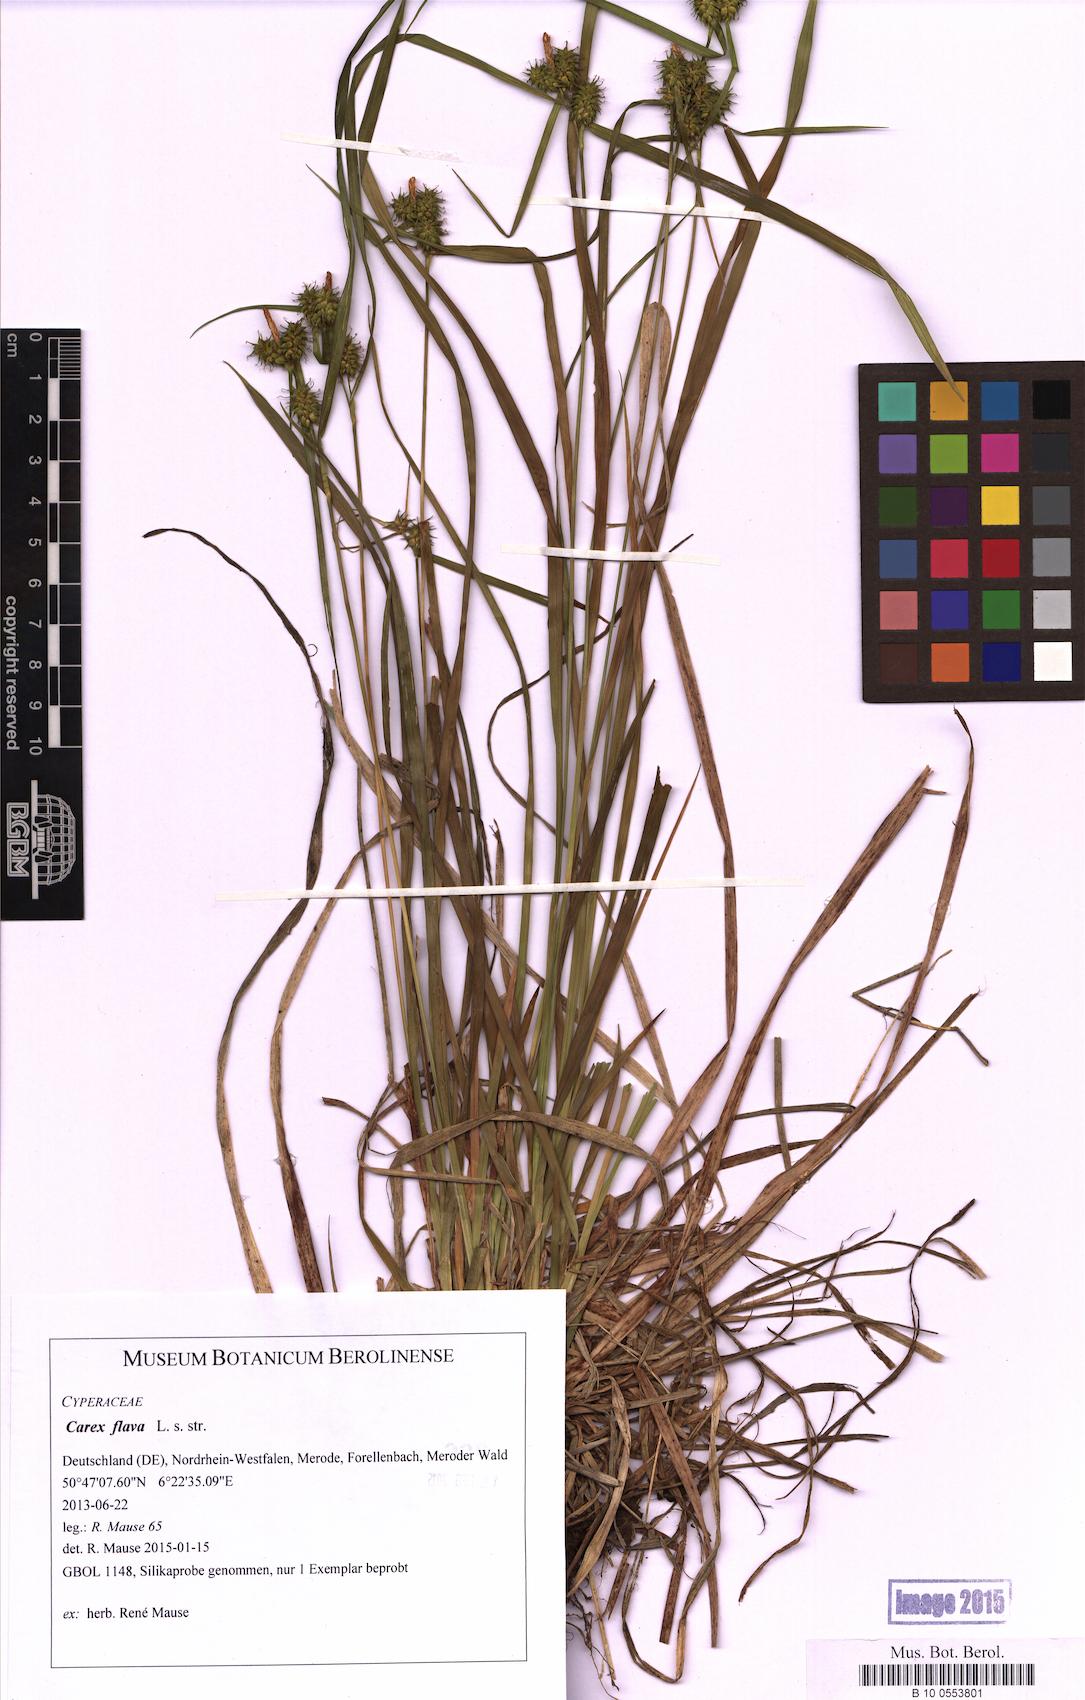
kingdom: Plantae
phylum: Tracheophyta
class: Liliopsida
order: Poales
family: Cyperaceae
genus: Carex
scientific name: Carex flava
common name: Large yellow-sedge
